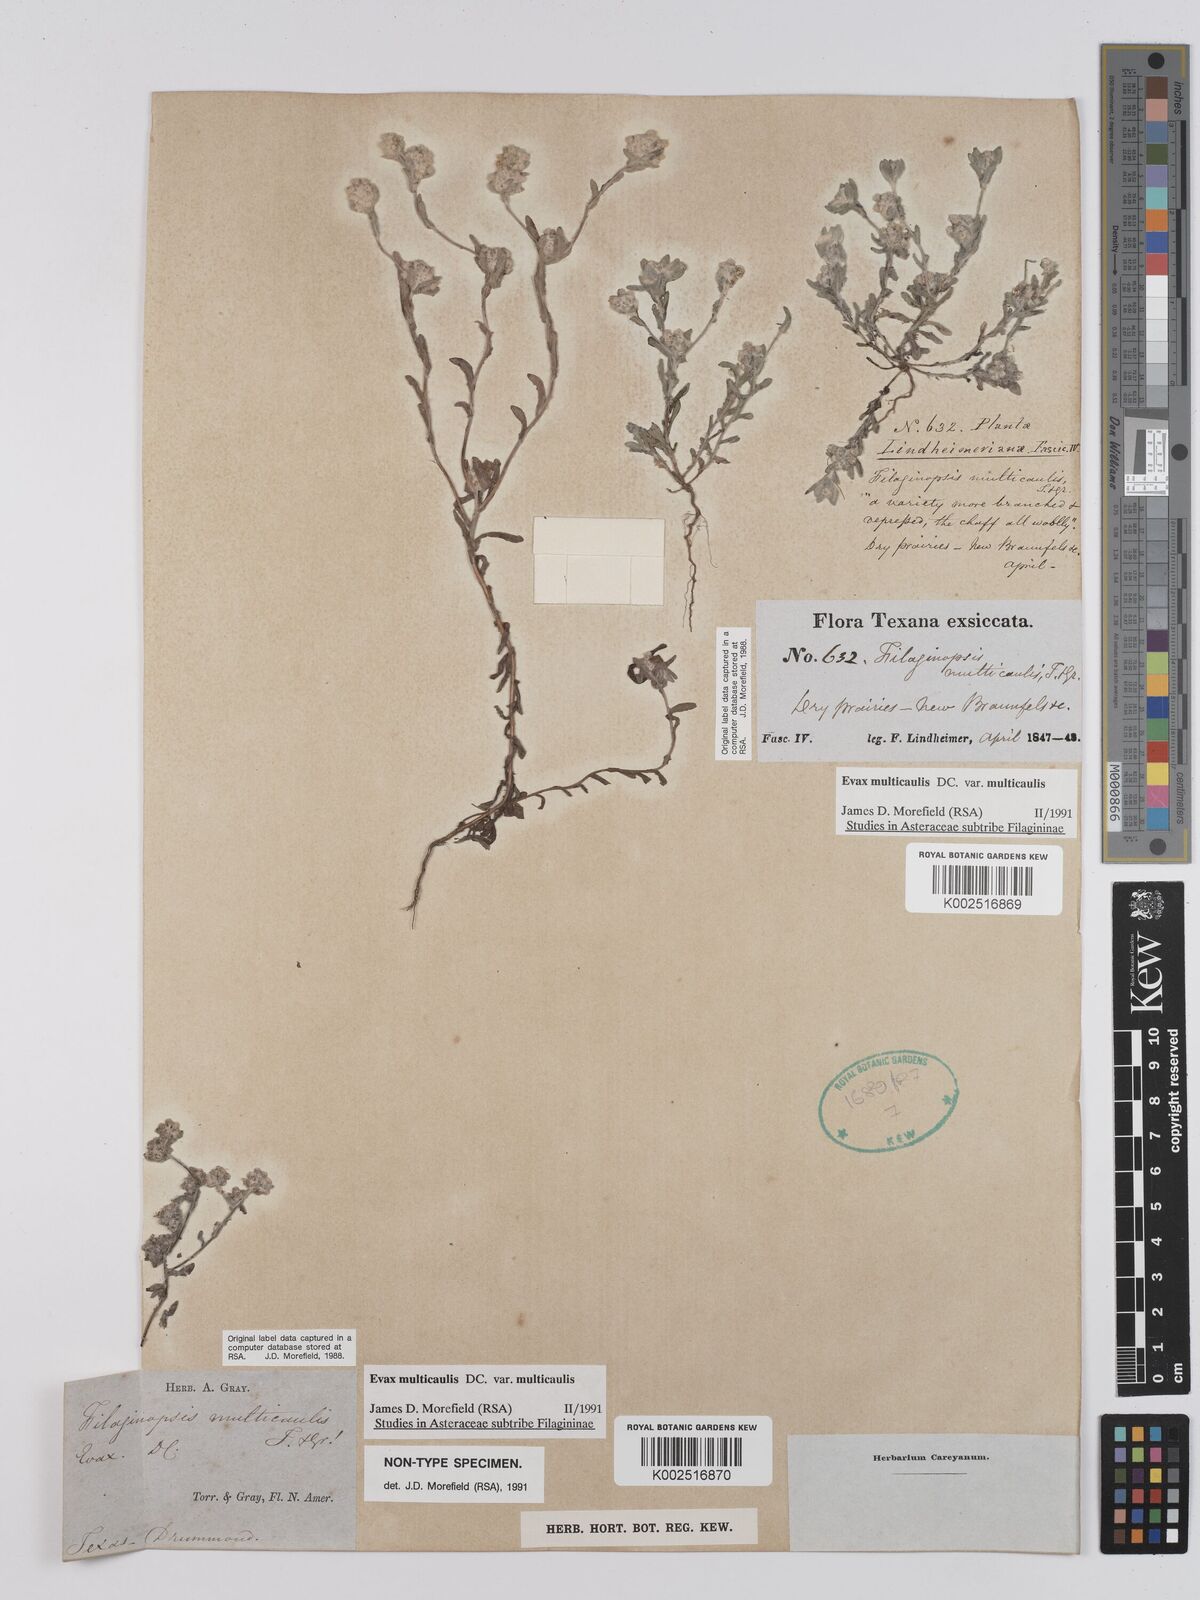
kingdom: Plantae
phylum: Tracheophyta
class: Magnoliopsida
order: Asterales
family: Asteraceae
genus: Filago
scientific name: Filago
